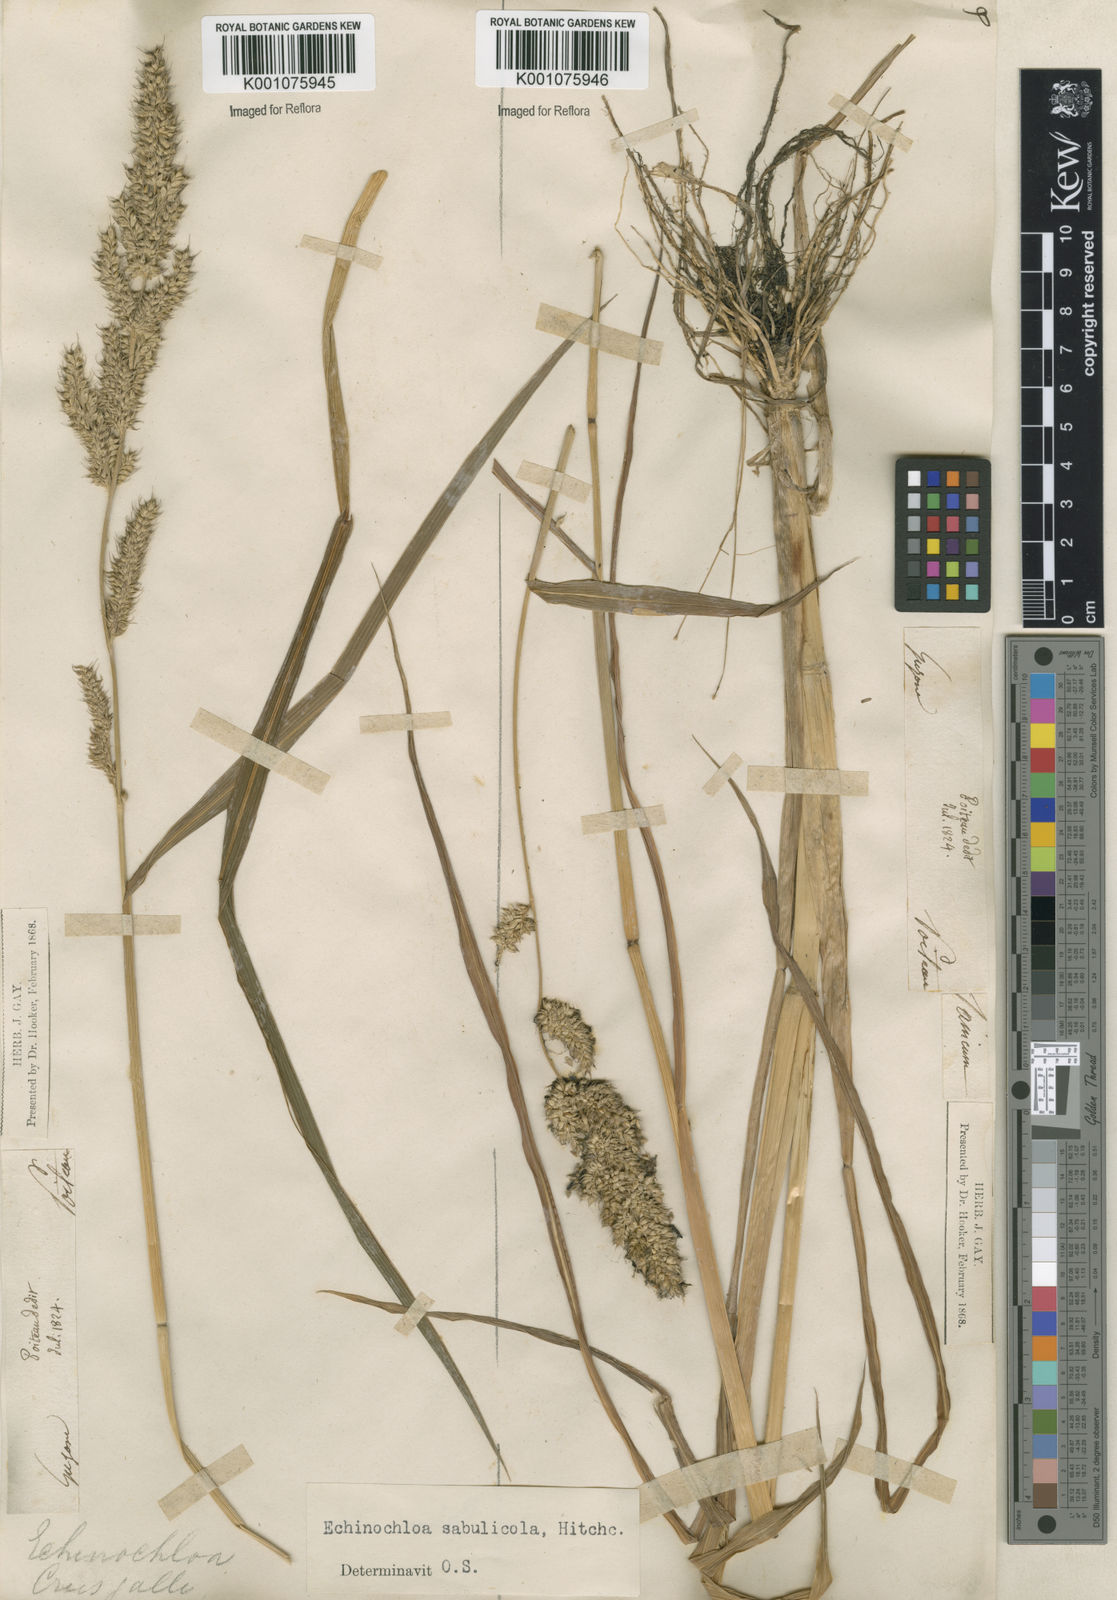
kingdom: Plantae
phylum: Tracheophyta
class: Liliopsida
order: Poales
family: Poaceae
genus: Echinochloa
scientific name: Echinochloa crus-pavonis
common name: Gulf cockspur grass
